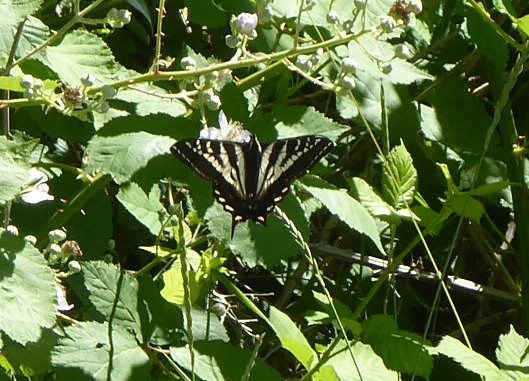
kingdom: Animalia
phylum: Arthropoda
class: Insecta
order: Lepidoptera
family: Papilionidae
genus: Pterourus
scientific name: Pterourus eurymedon
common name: Pale Swallowtail
